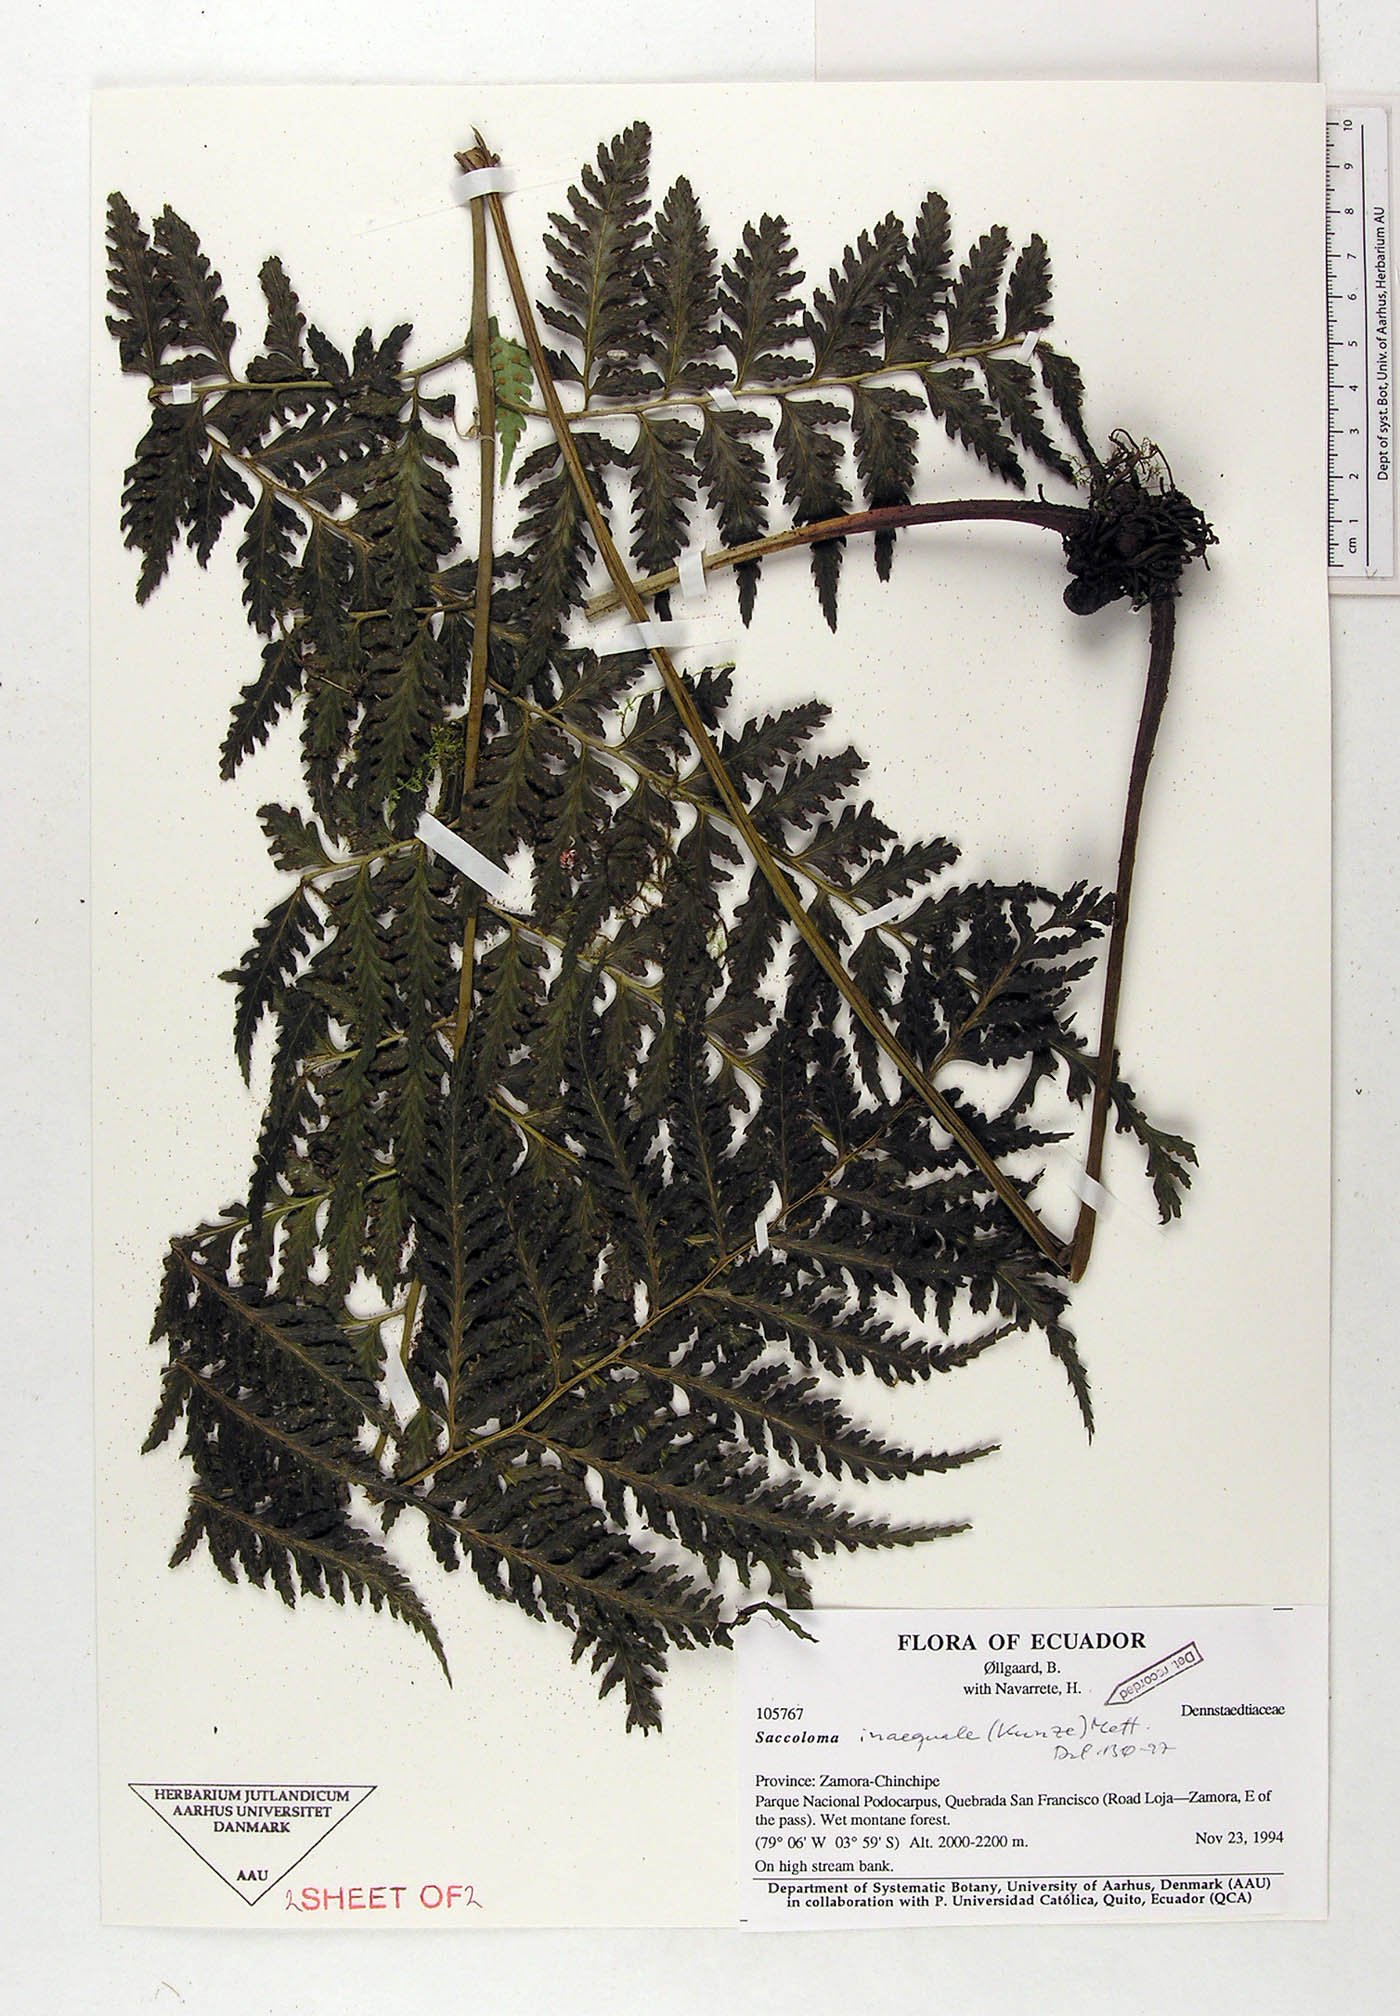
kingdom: Plantae
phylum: Tracheophyta
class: Polypodiopsida
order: Polypodiales
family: Saccolomataceae
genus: Saccoloma
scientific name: Saccoloma inaequale
